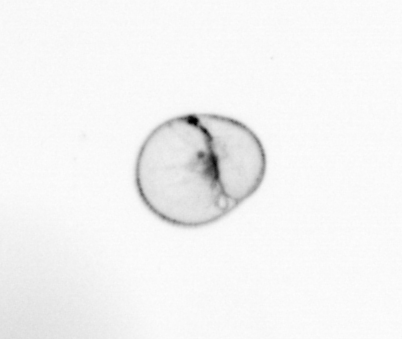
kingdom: Chromista
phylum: Myzozoa
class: Dinophyceae
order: Noctilucales
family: Noctilucaceae
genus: Noctiluca
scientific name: Noctiluca scintillans
